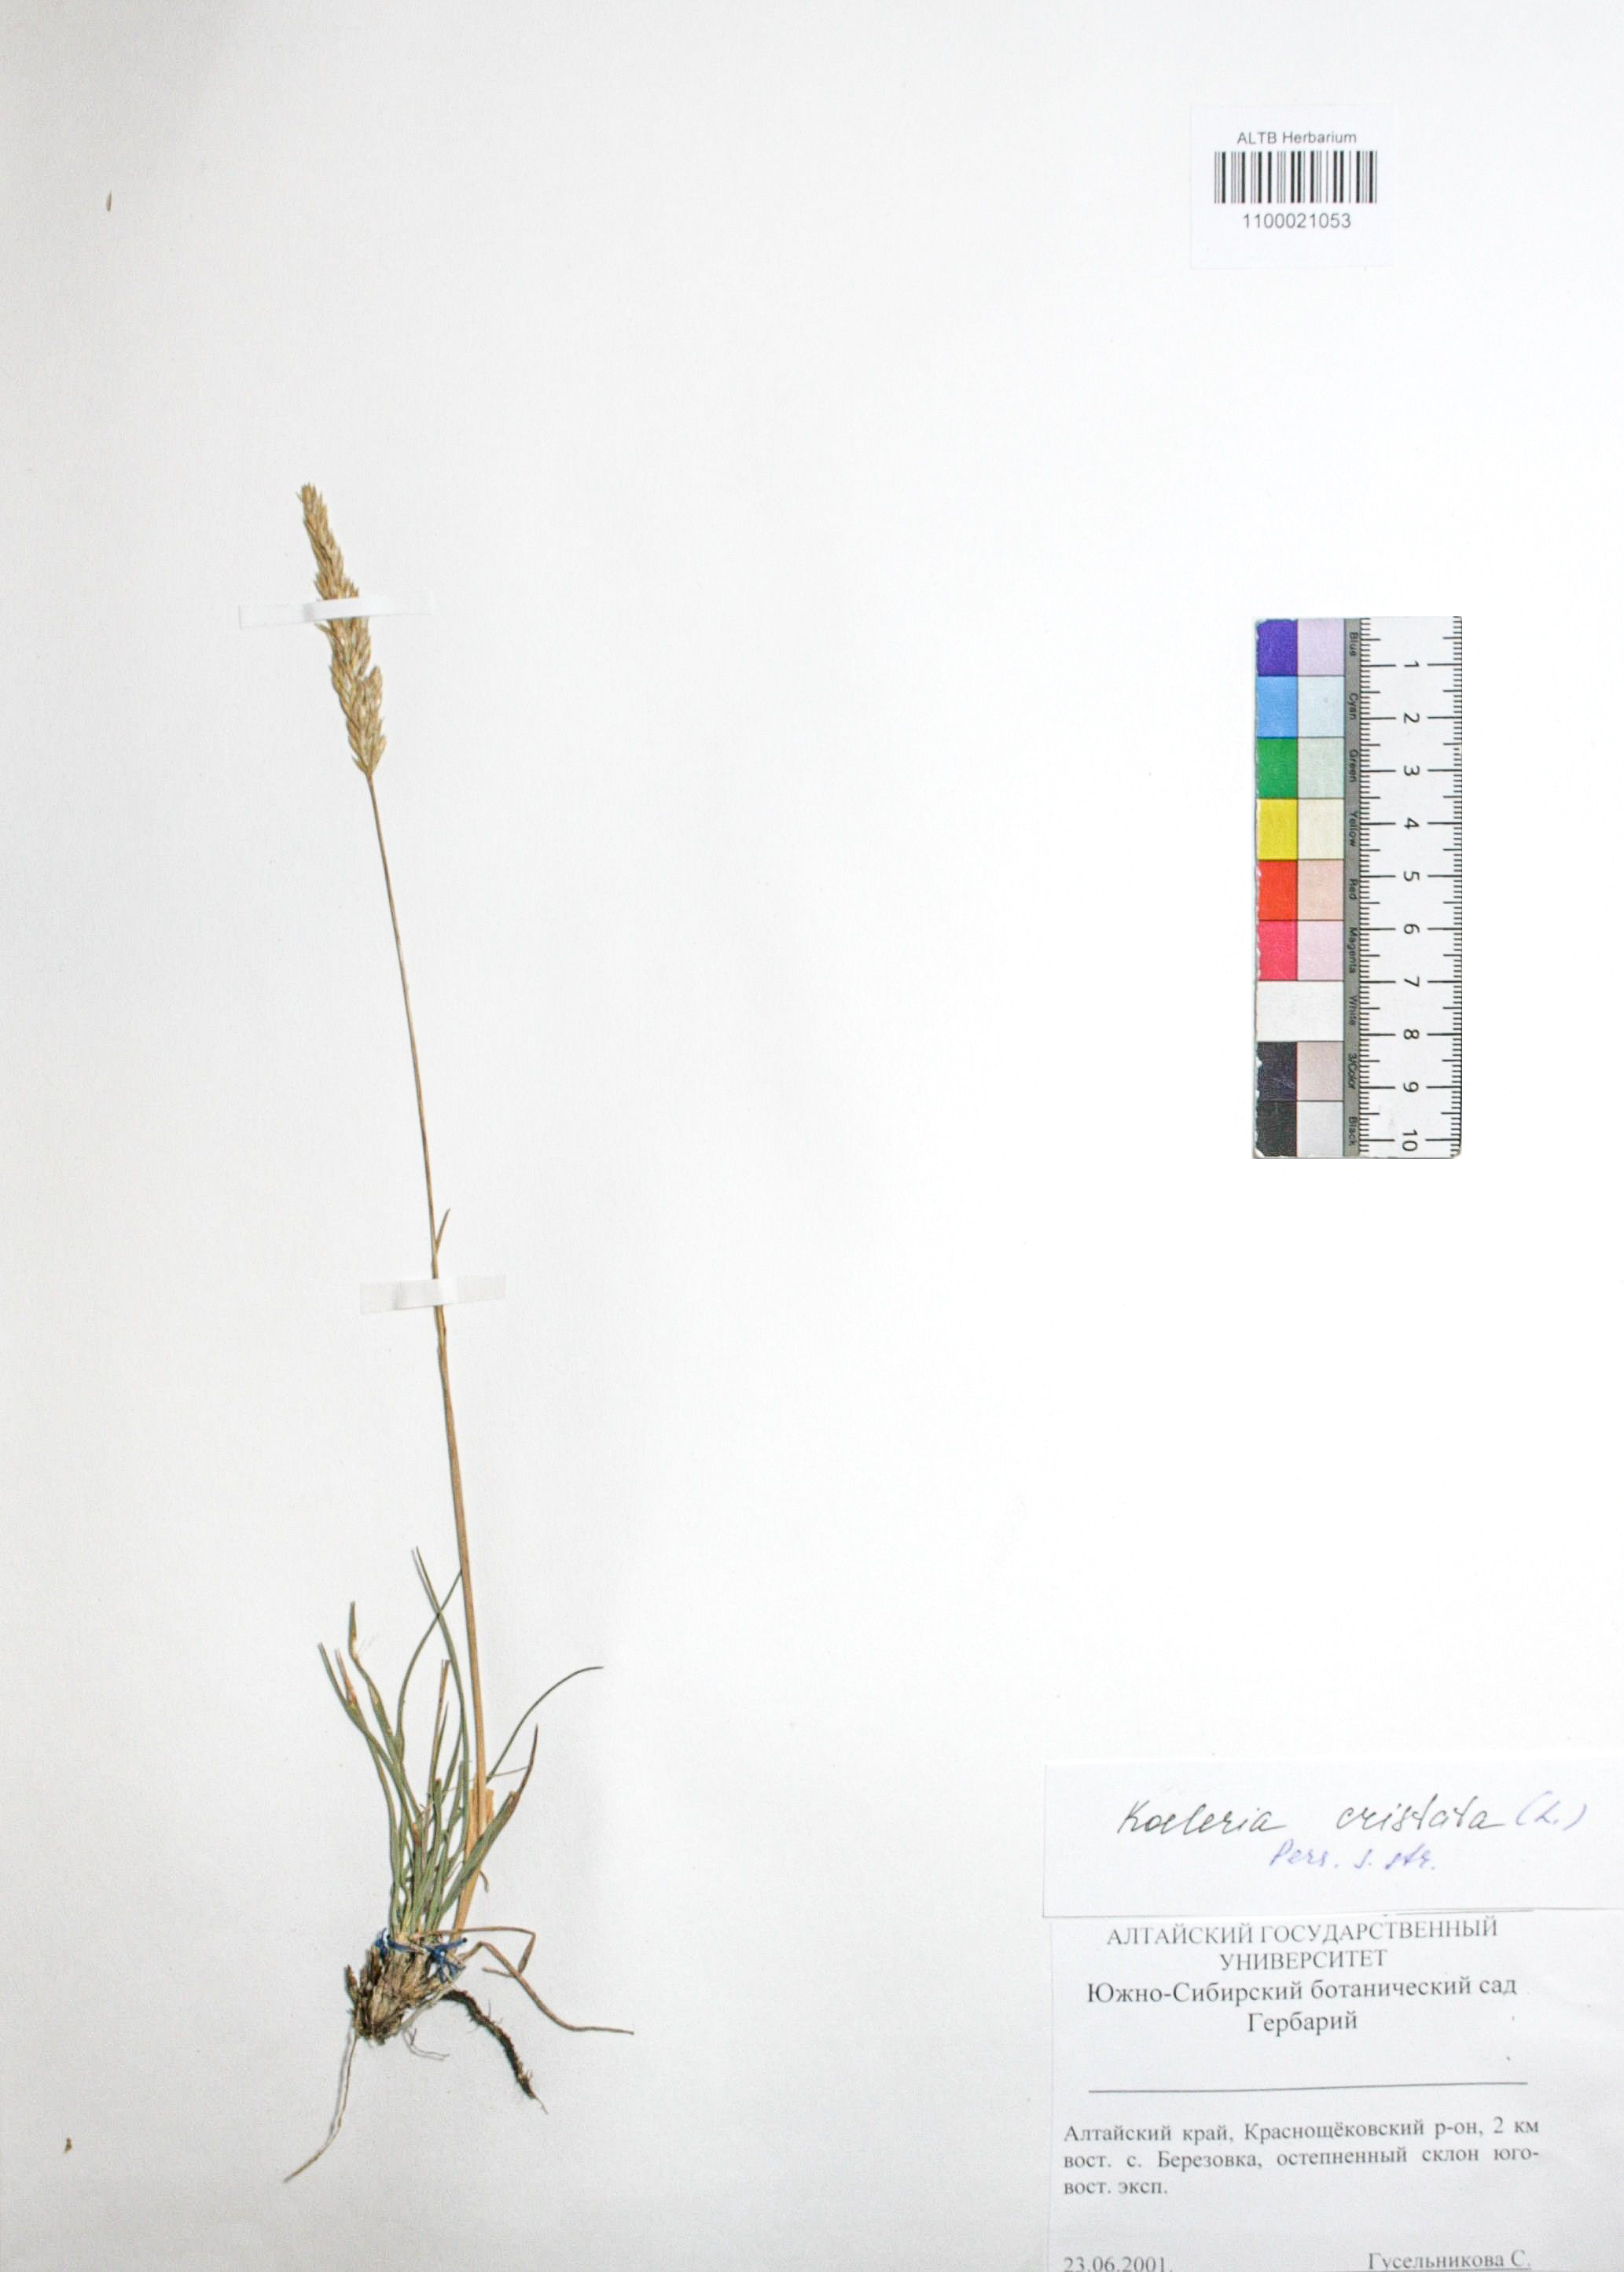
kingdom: Plantae
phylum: Tracheophyta
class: Liliopsida
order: Poales
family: Poaceae
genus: Koeleria
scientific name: Koeleria pyramidata
